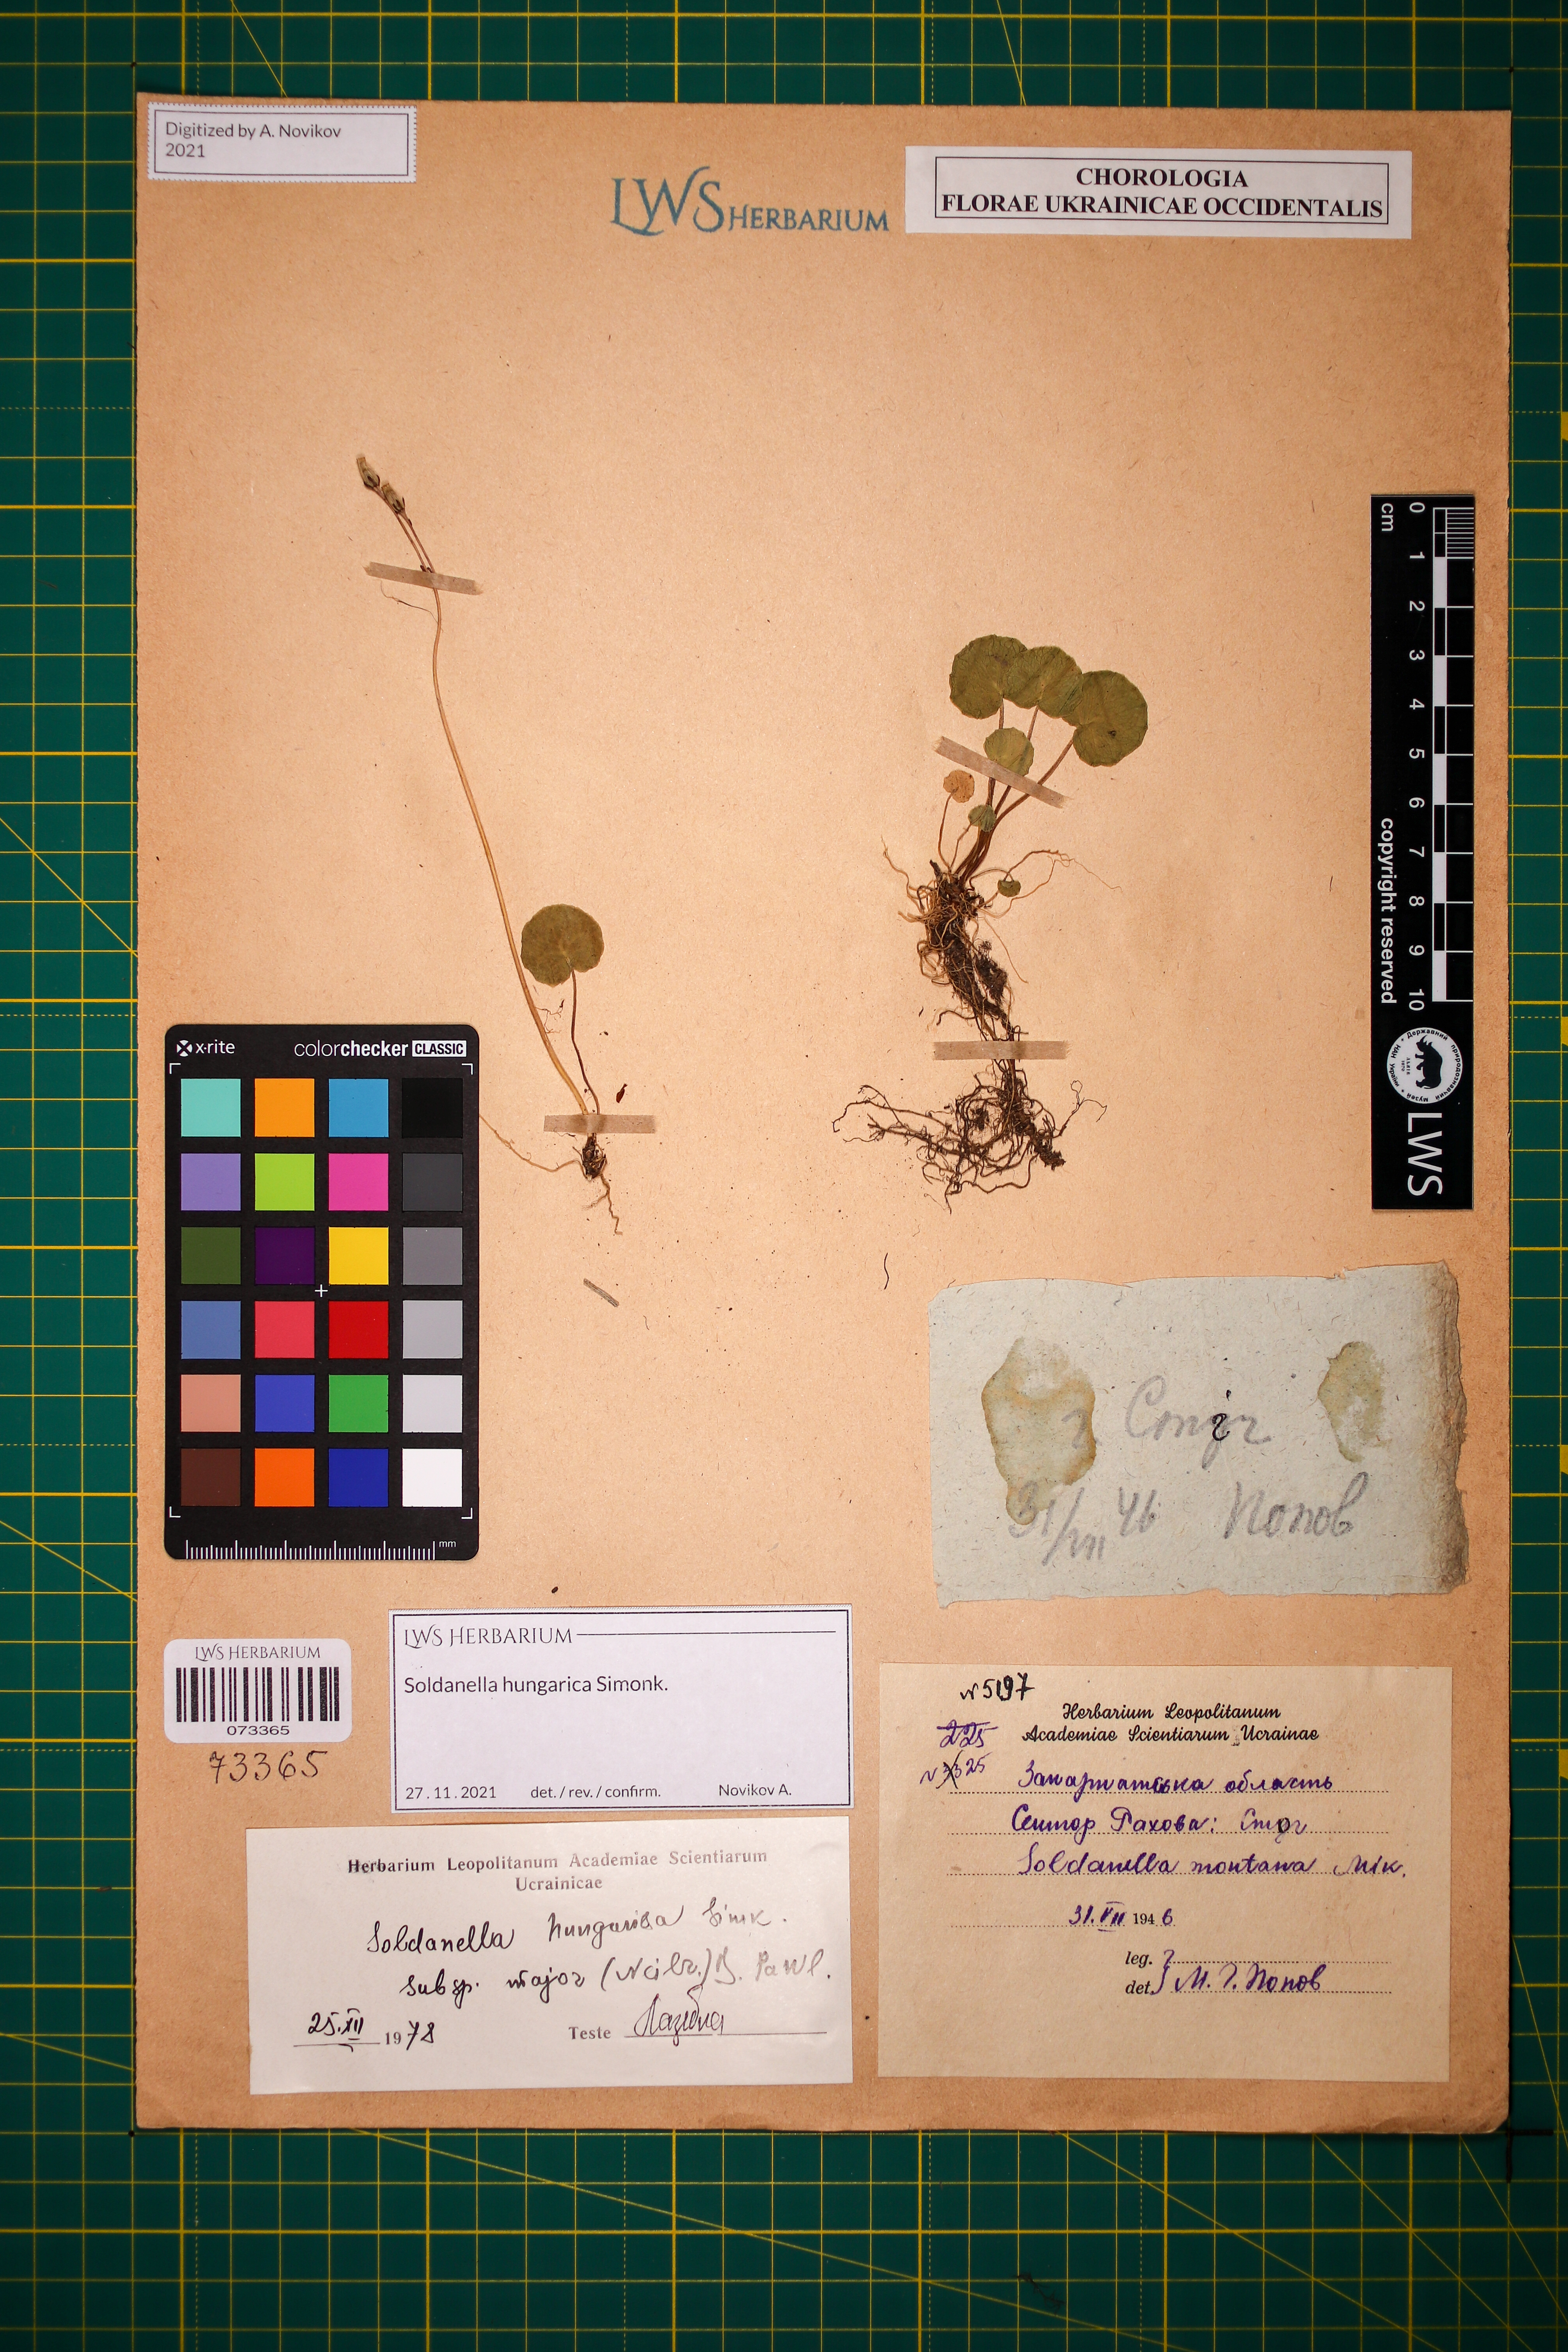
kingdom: Plantae
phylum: Tracheophyta
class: Magnoliopsida
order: Ericales
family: Primulaceae
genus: Soldanella
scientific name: Soldanella hungarica
